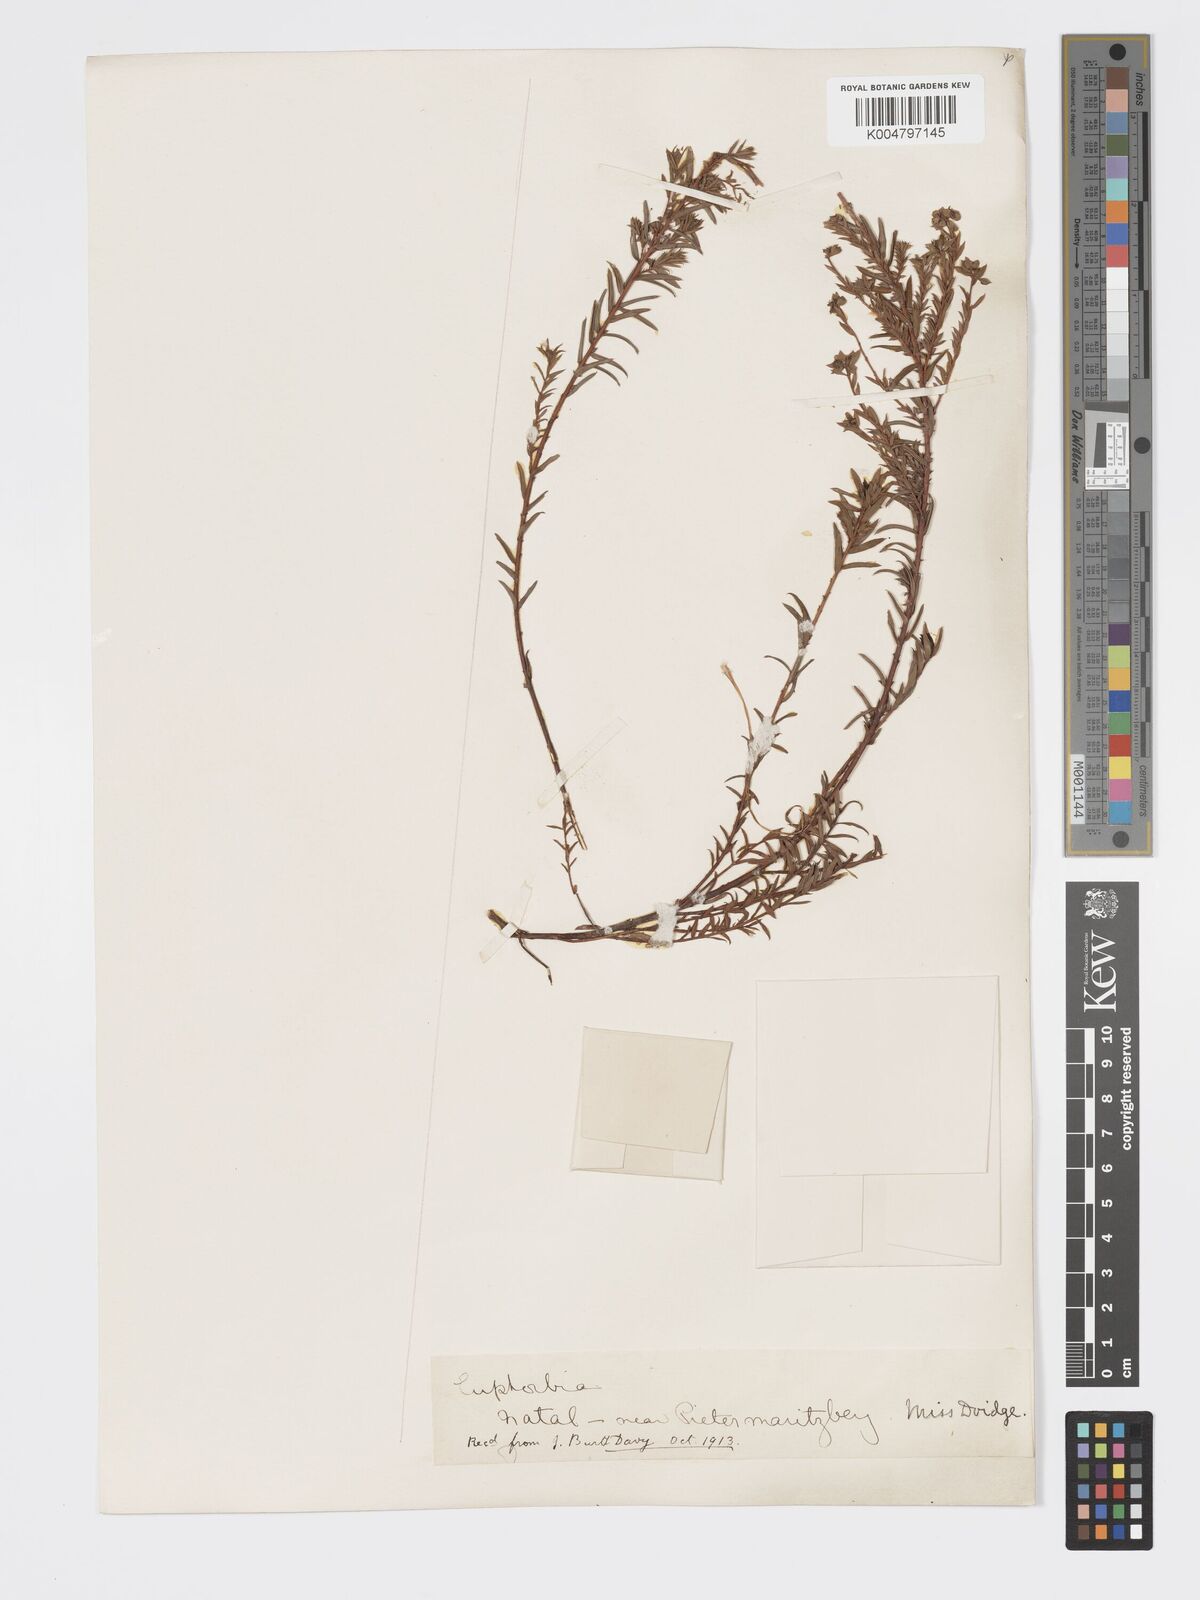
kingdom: Plantae
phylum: Tracheophyta
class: Magnoliopsida
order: Malpighiales
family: Euphorbiaceae
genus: Euphorbia
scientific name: Euphorbia
